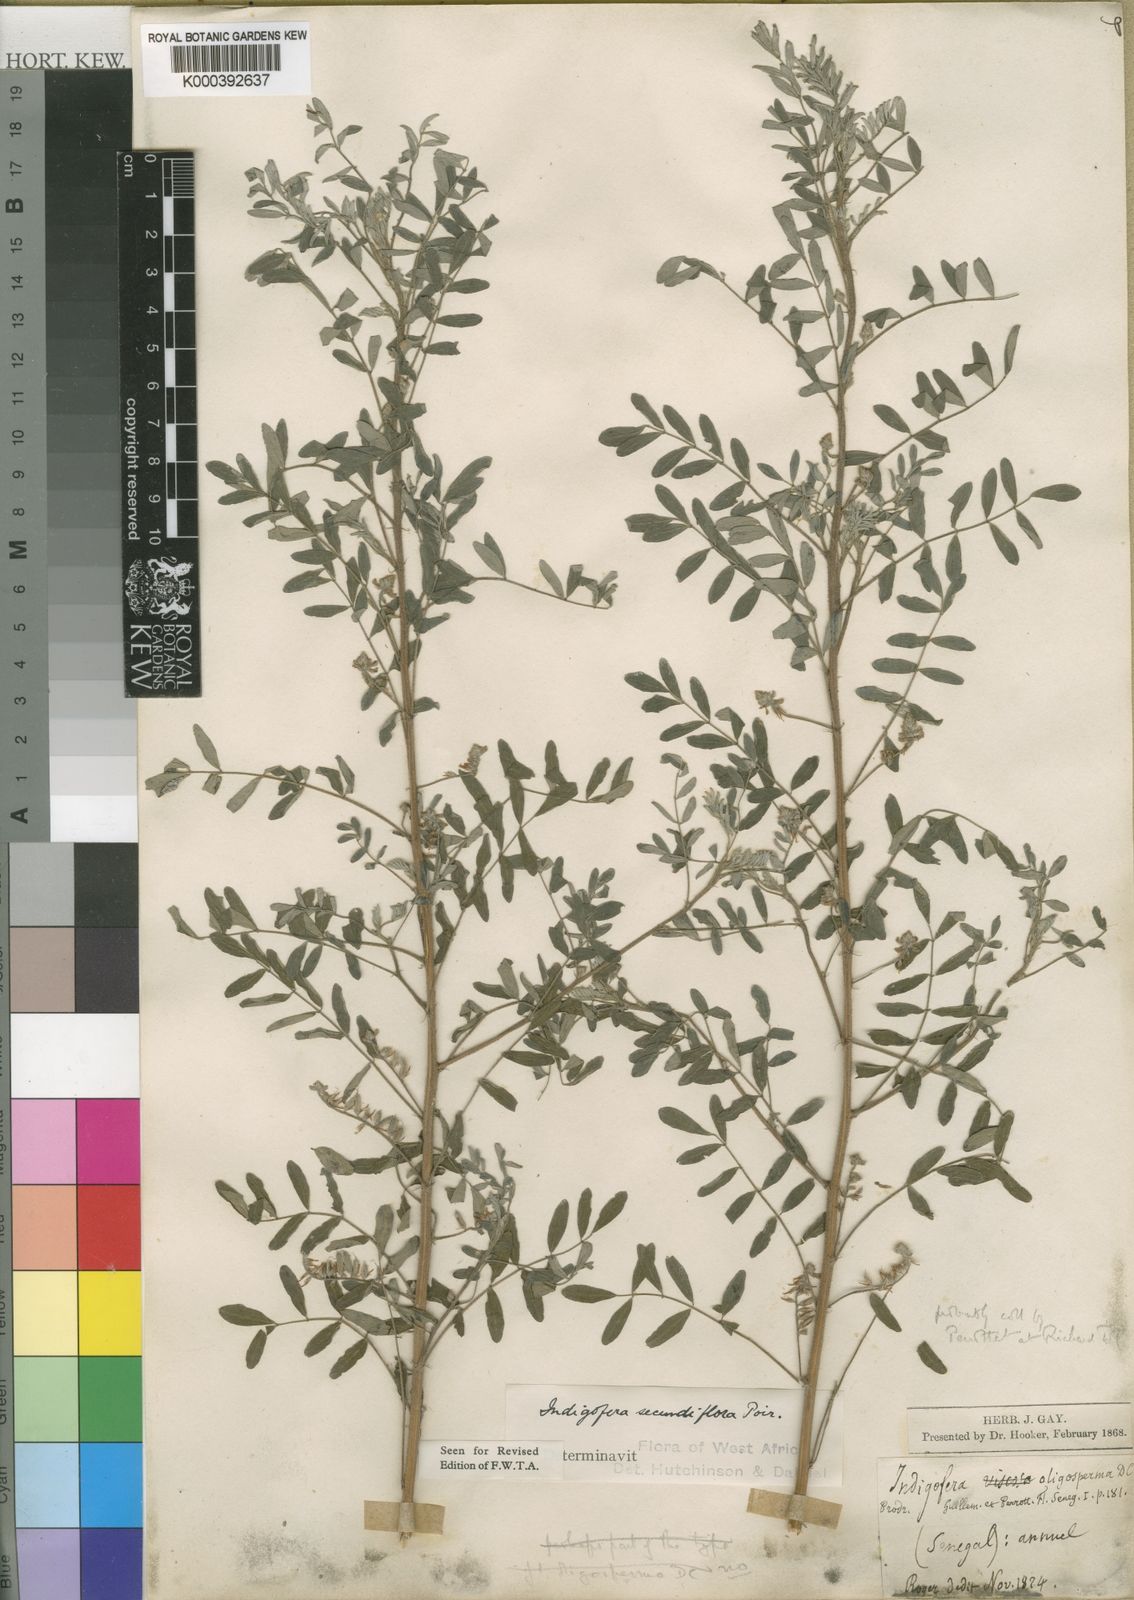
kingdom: Plantae
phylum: Tracheophyta
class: Magnoliopsida
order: Fabales
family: Fabaceae
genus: Indigofera
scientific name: Indigofera secundiflora
